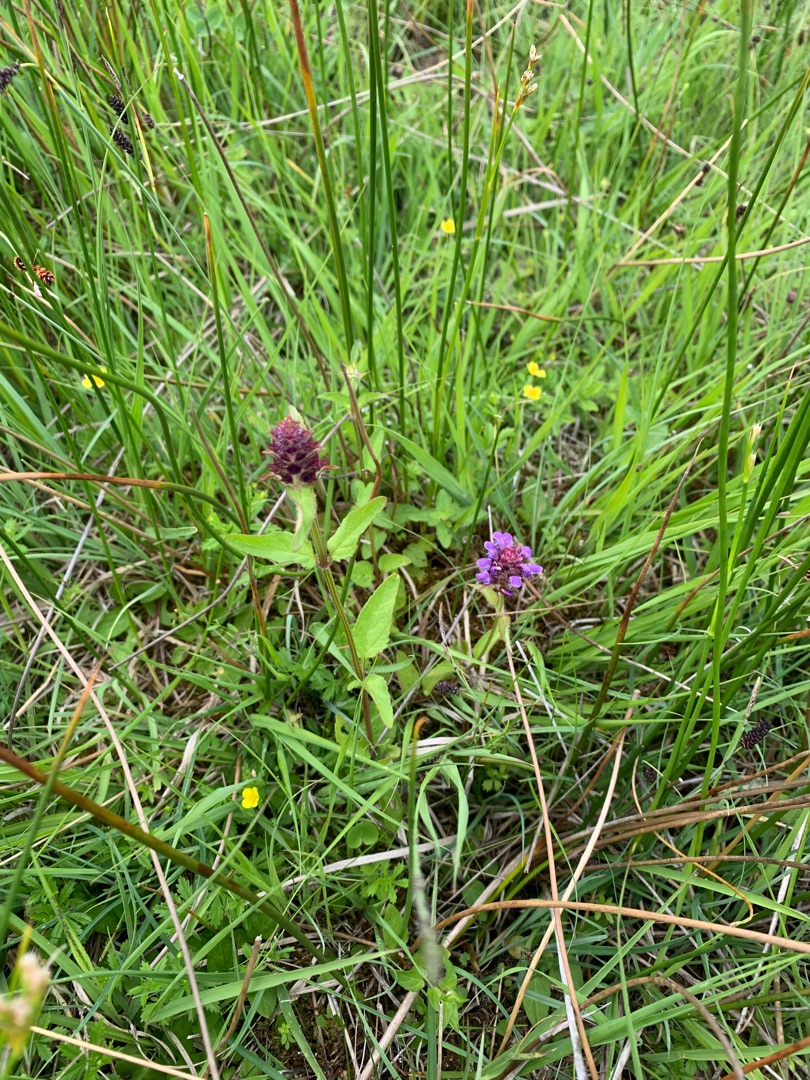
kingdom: Plantae
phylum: Tracheophyta
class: Magnoliopsida
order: Lamiales
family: Lamiaceae
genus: Prunella
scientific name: Prunella vulgaris
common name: Almindelig brunelle
